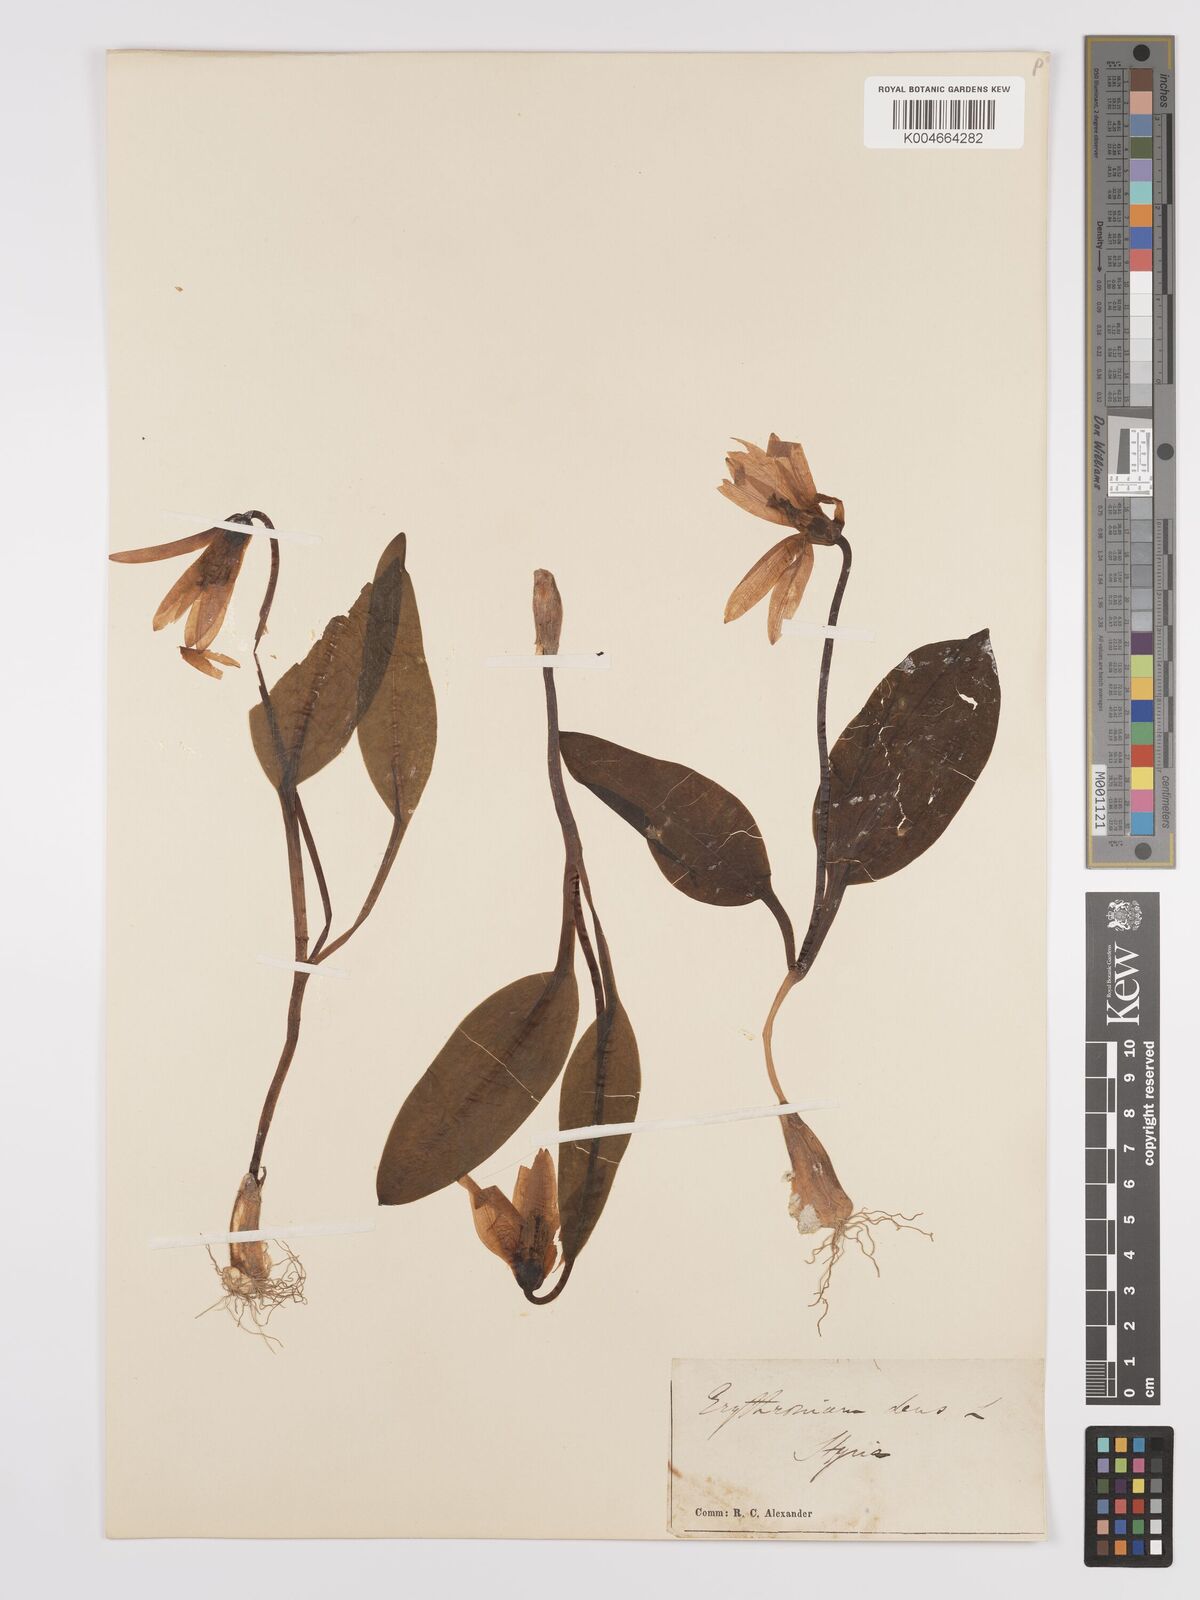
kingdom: Plantae
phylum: Tracheophyta
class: Liliopsida
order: Liliales
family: Liliaceae
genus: Erythronium
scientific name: Erythronium dens-canis
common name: Dog's-tooth-violet
